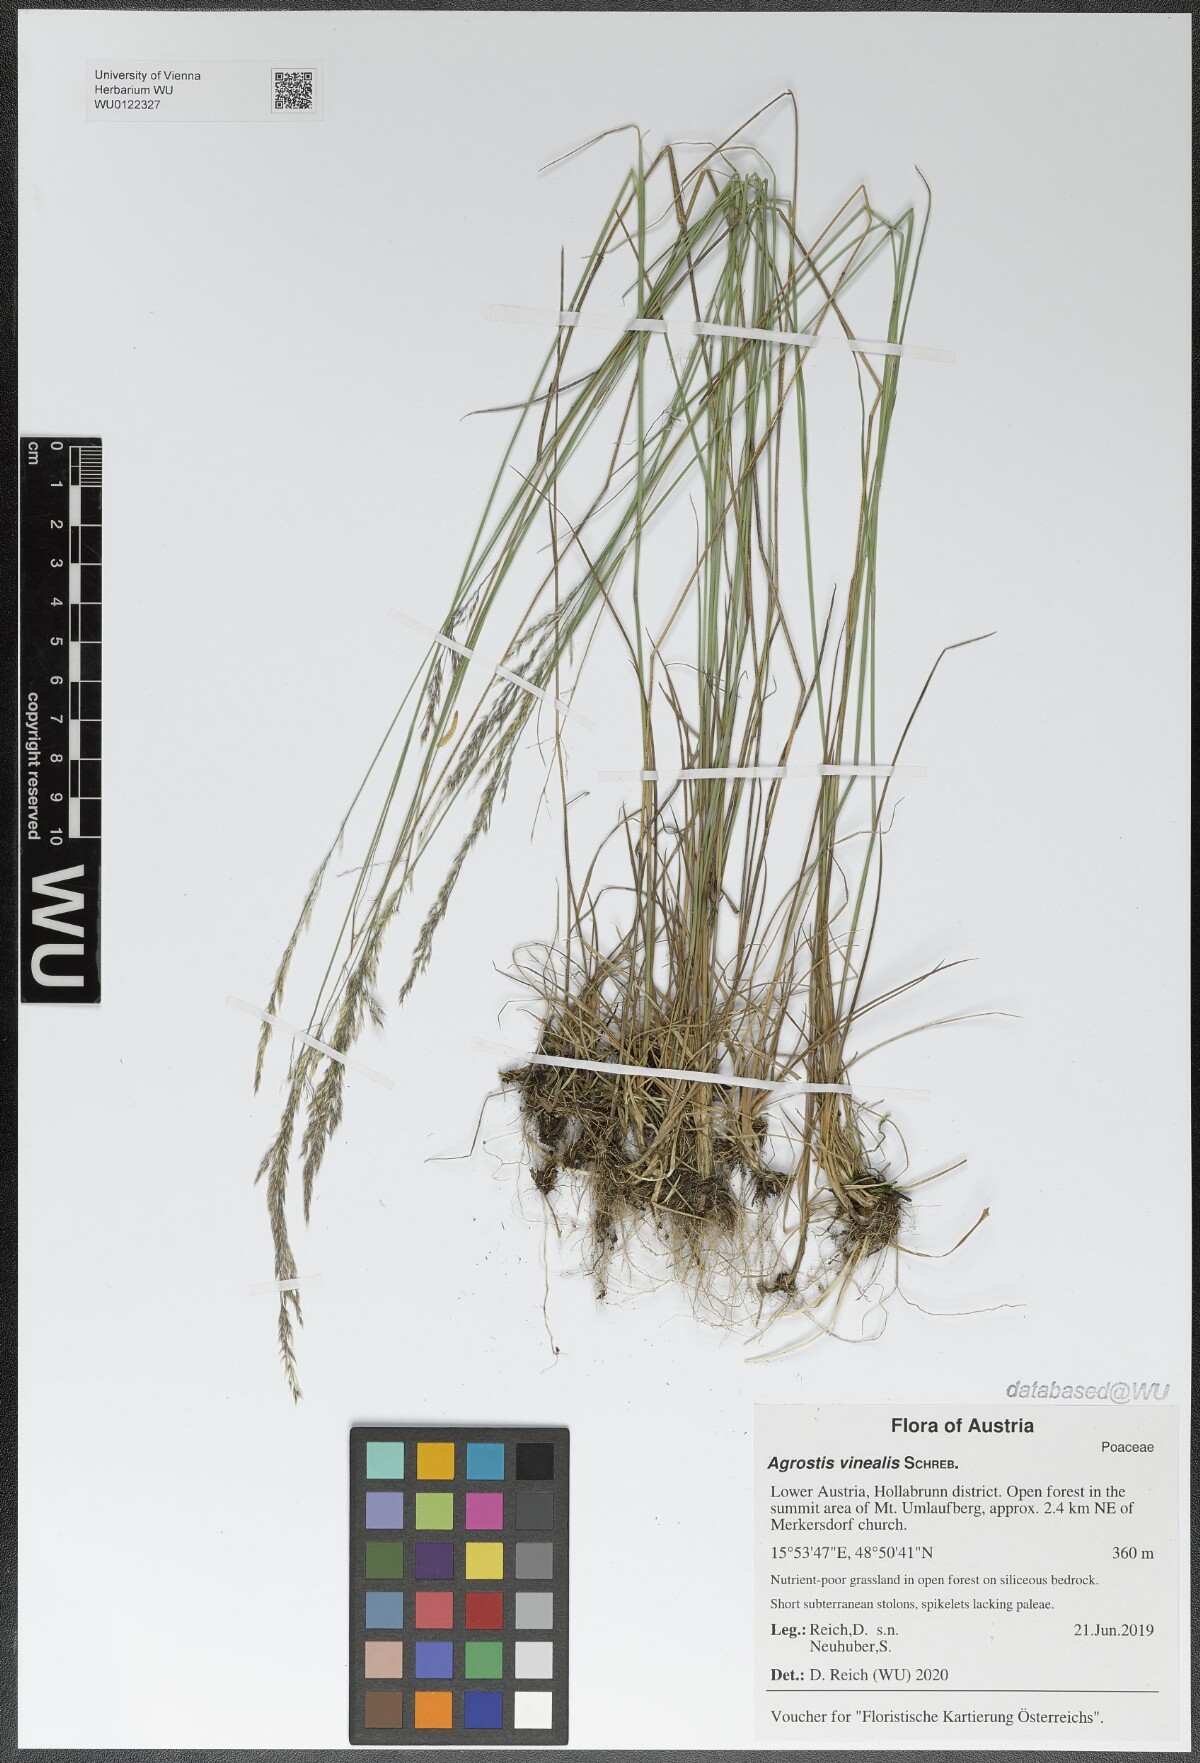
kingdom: Plantae
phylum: Tracheophyta
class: Liliopsida
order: Poales
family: Poaceae
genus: Agrostis
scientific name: Agrostis vinealis
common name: Brown bent
